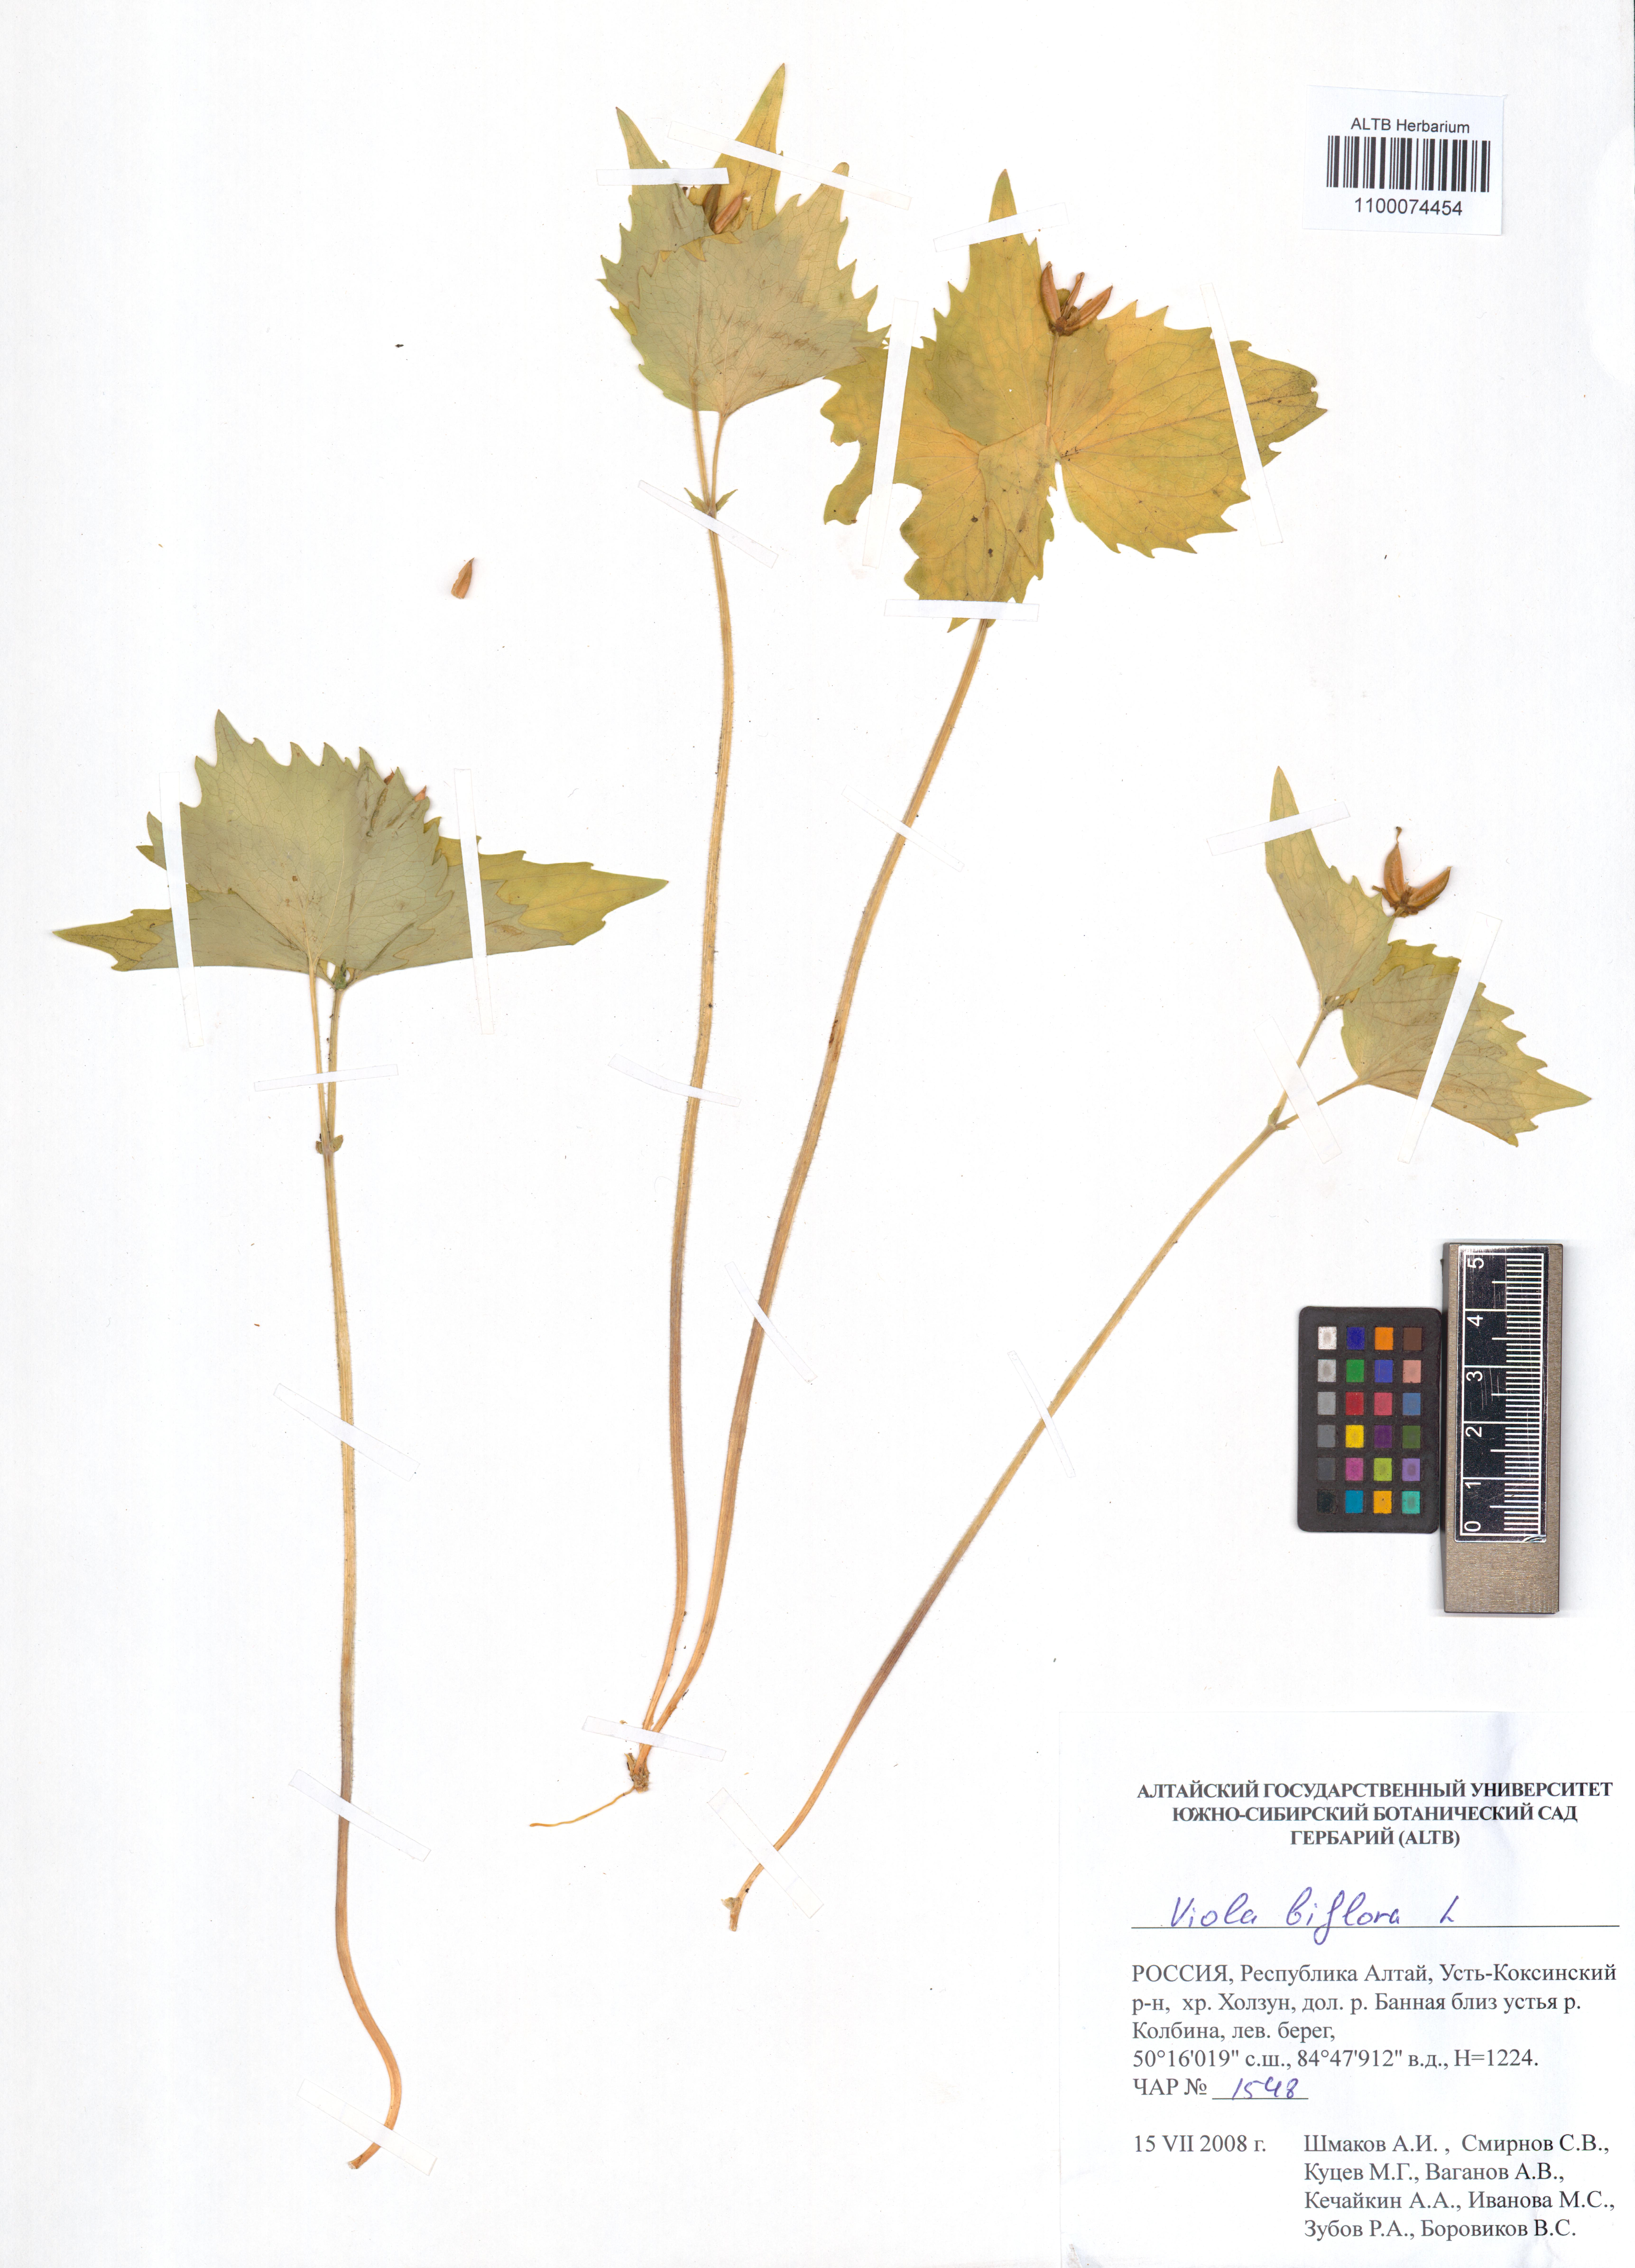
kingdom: Plantae
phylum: Tracheophyta
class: Magnoliopsida
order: Malpighiales
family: Violaceae
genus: Viola
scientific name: Viola biflora
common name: Alpine yellow violet
